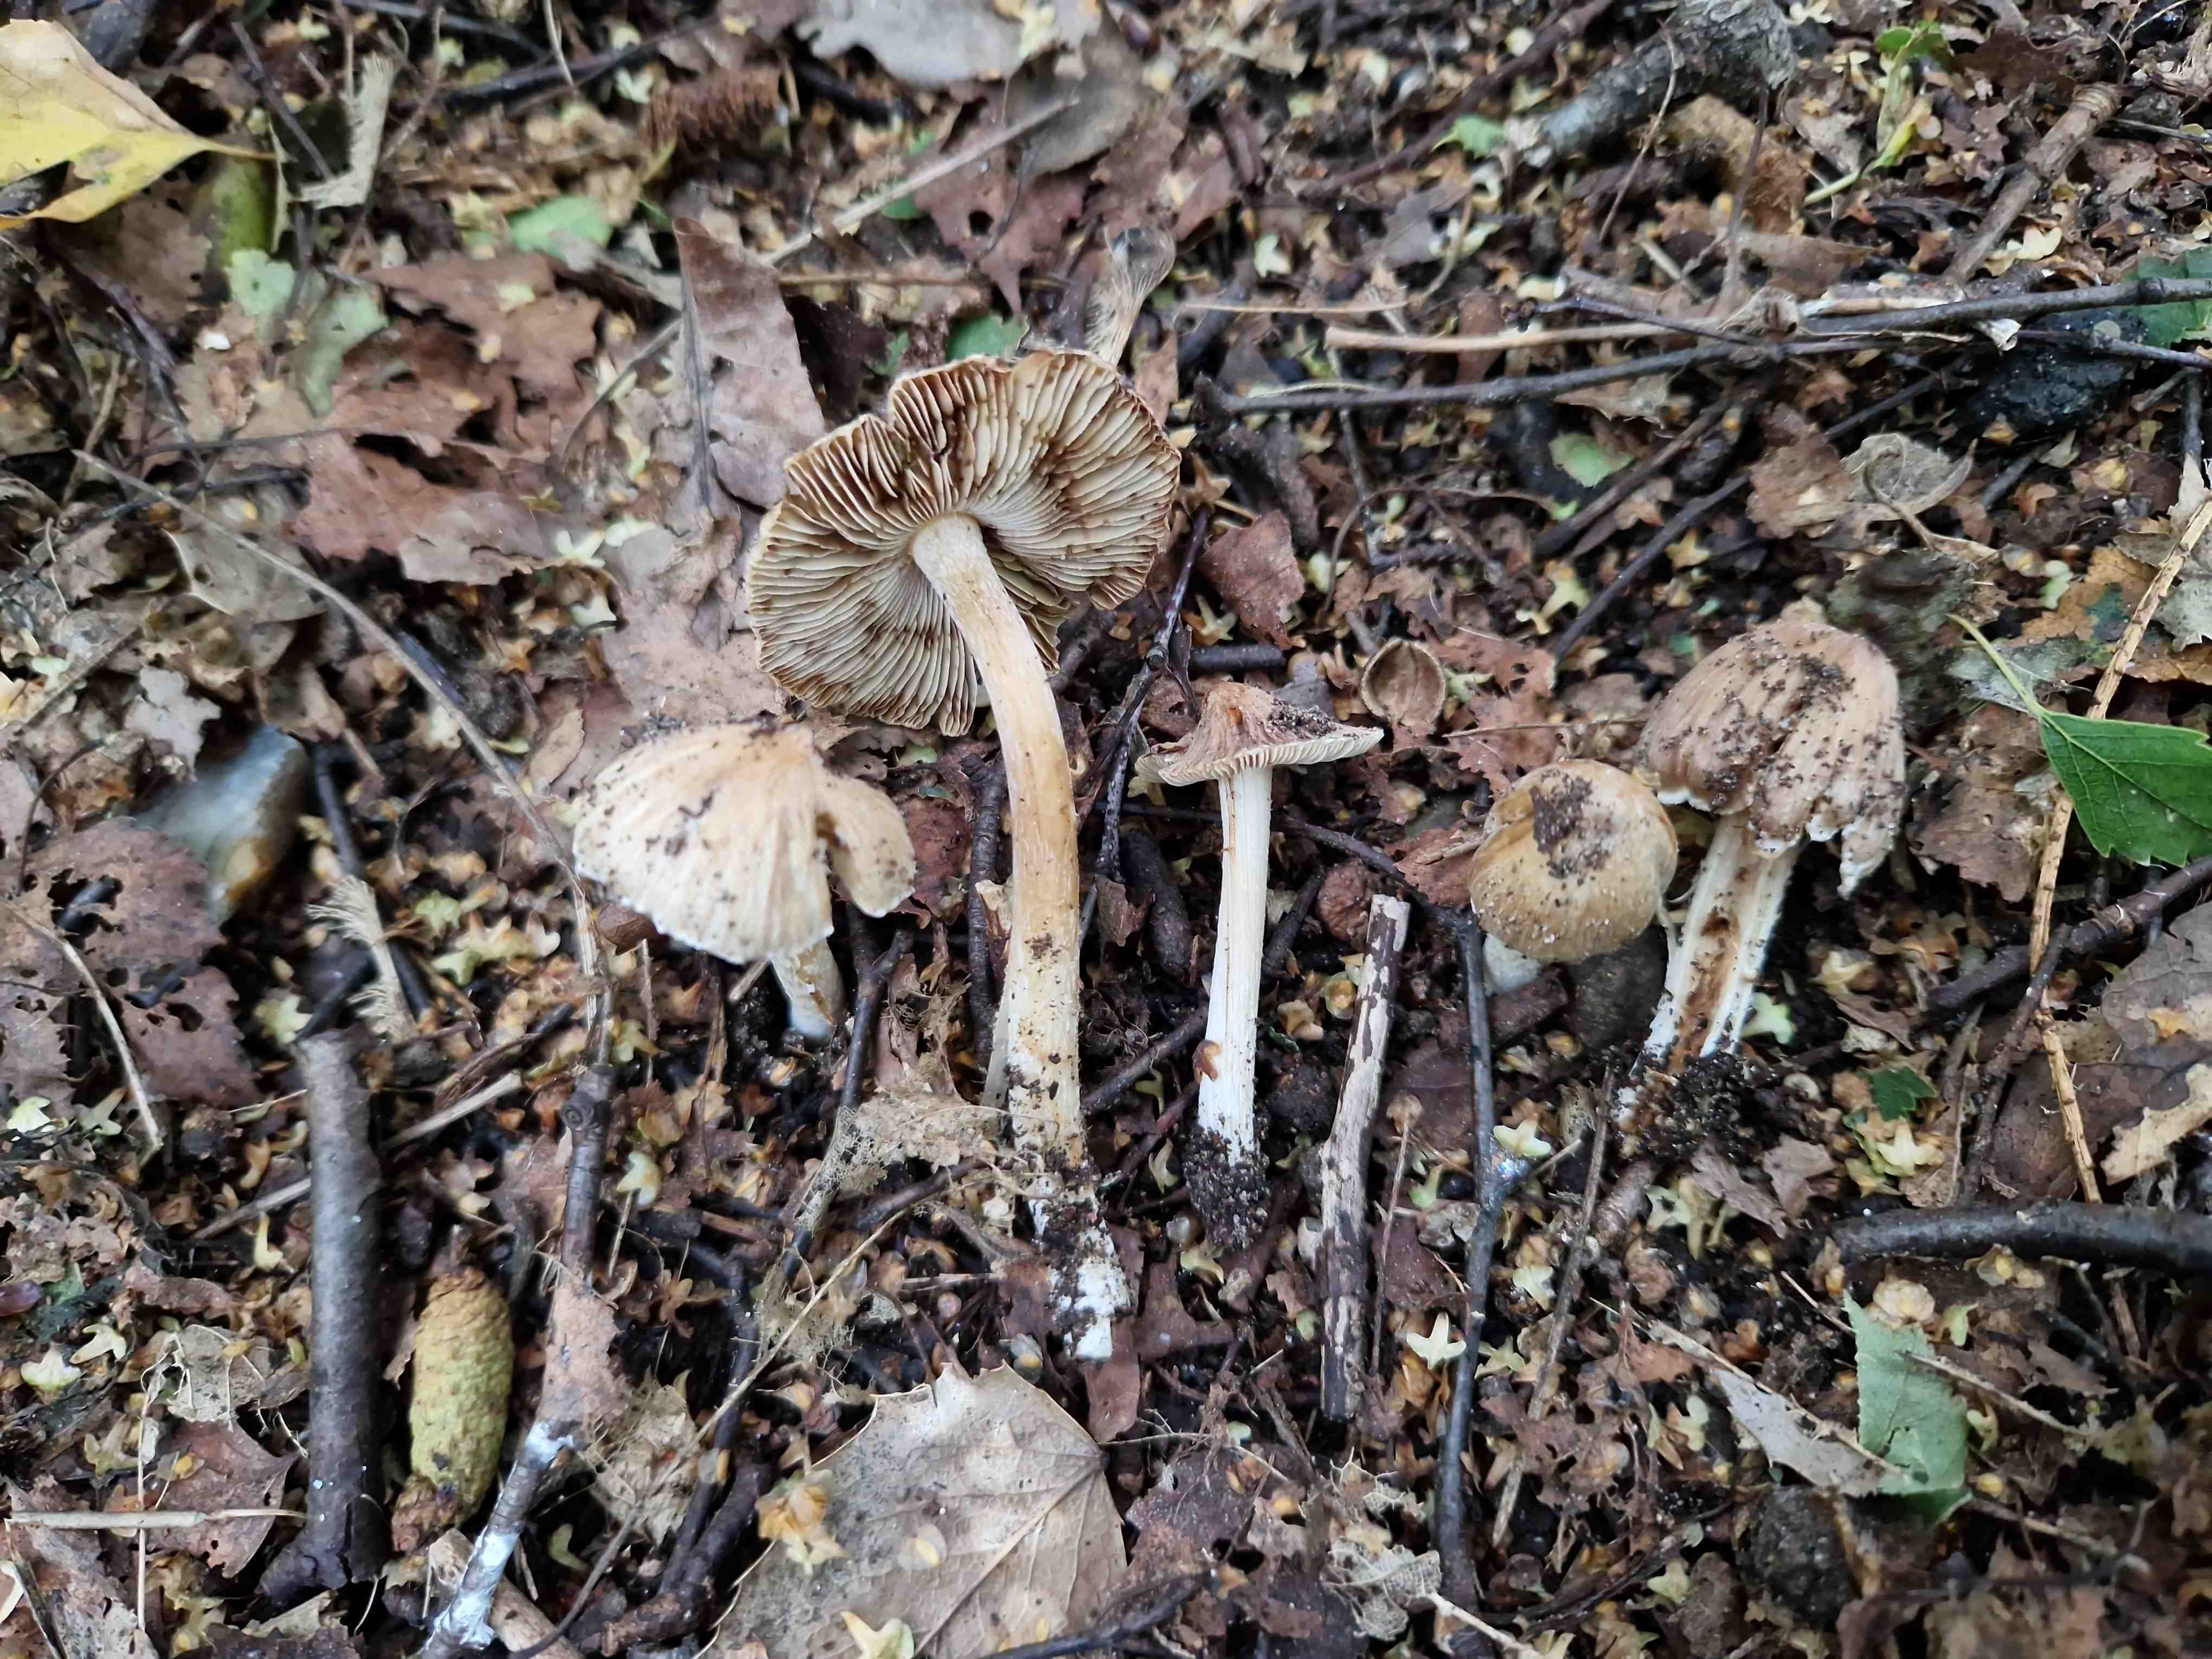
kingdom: Fungi
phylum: Basidiomycota
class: Agaricomycetes
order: Agaricales
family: Inocybaceae
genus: Pseudosperma
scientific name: Pseudosperma
